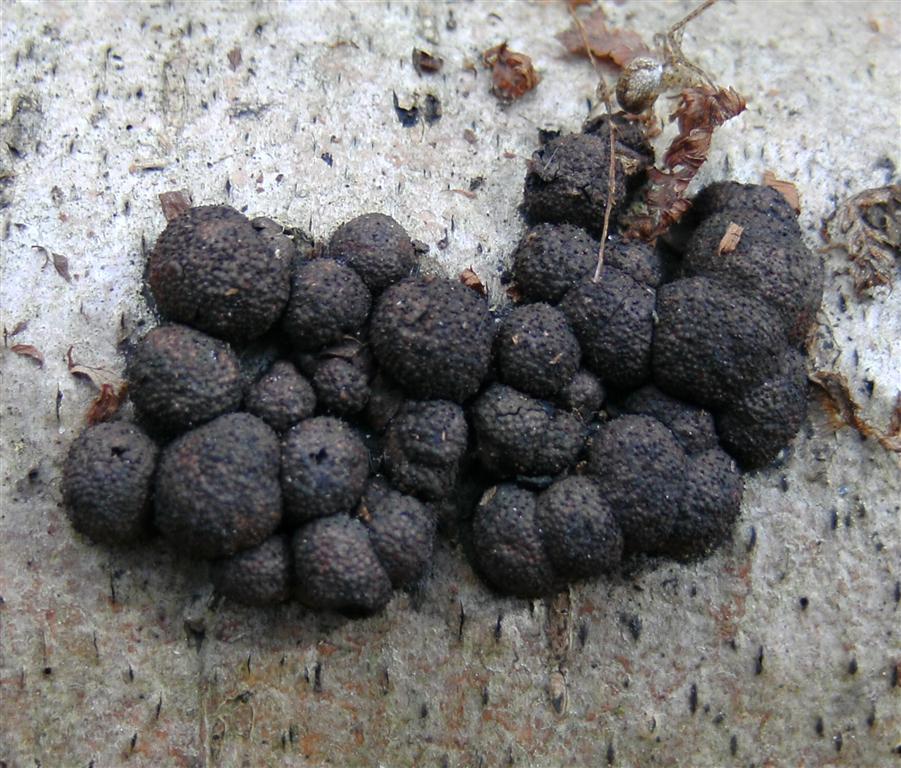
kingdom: Fungi
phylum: Ascomycota
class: Sordariomycetes
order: Xylariales
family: Hypoxylaceae
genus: Hypoxylon
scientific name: Hypoxylon fragiforme
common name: kuljordbær
